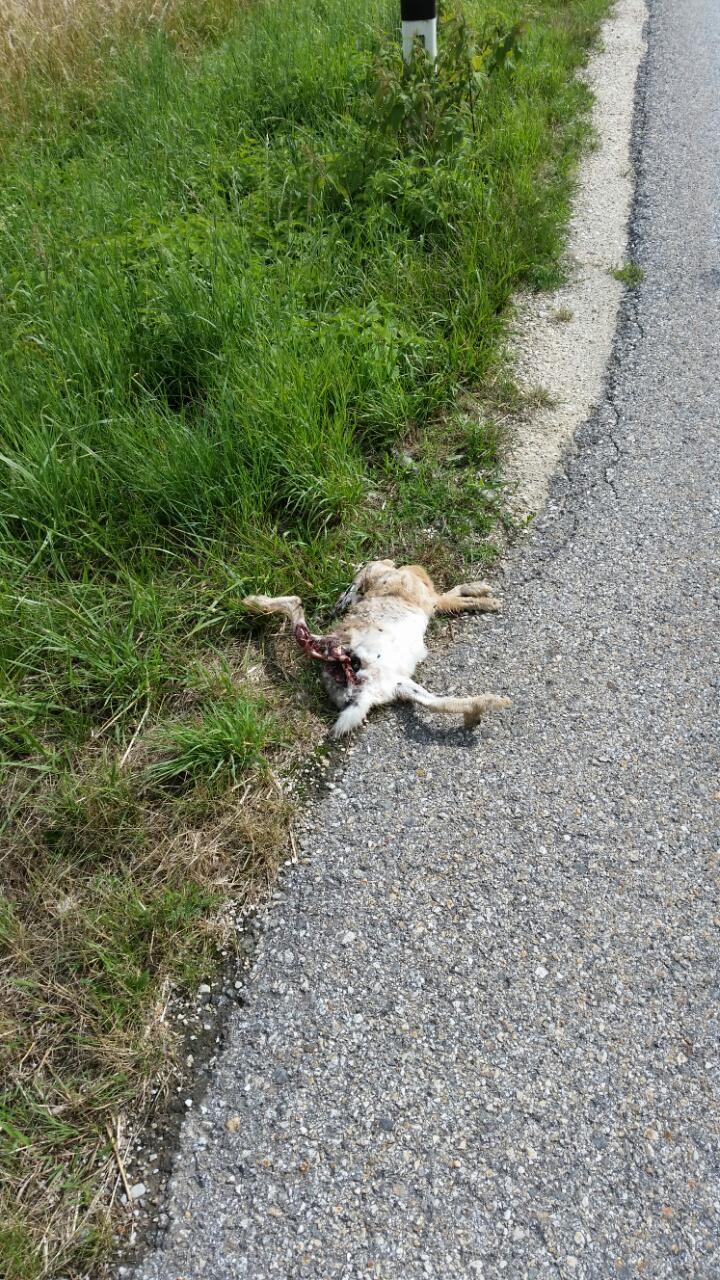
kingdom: Animalia
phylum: Chordata
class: Mammalia
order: Lagomorpha
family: Leporidae
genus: Lepus
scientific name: Lepus europaeus
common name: European hare
